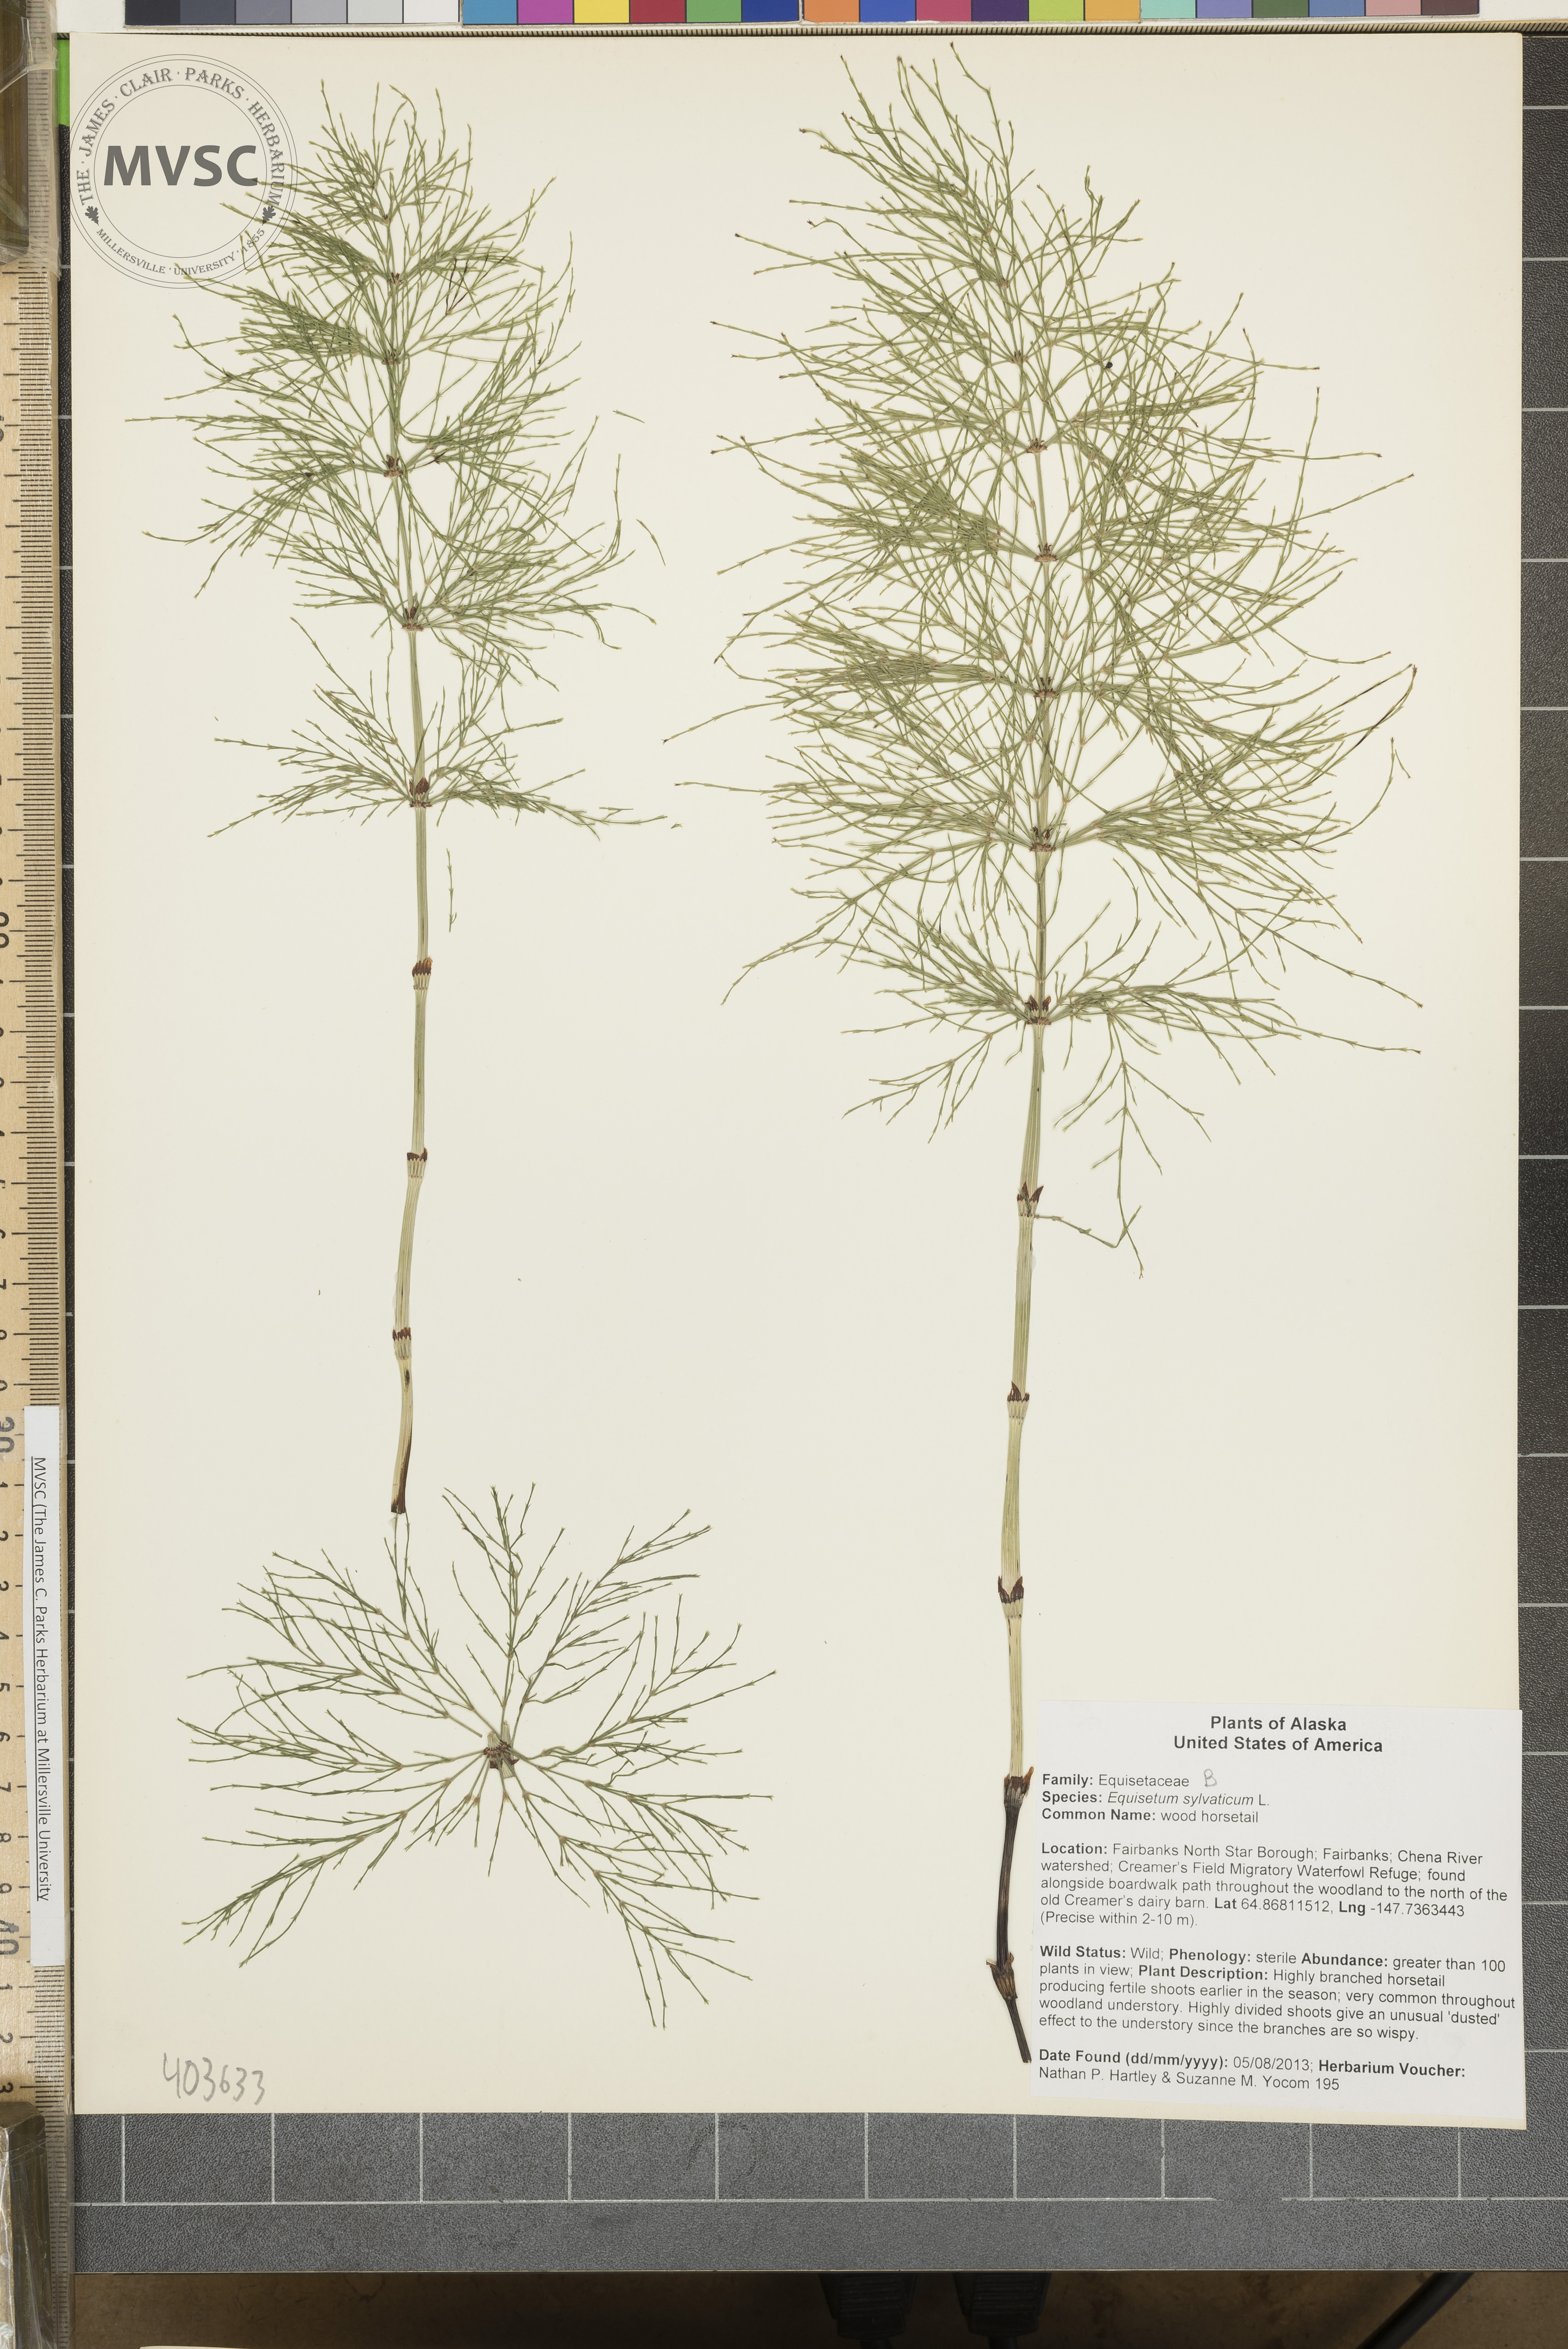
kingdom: Plantae
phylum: Tracheophyta
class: Polypodiopsida
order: Equisetales
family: Equisetaceae
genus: Equisetum
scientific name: Equisetum sylvaticum
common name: wood horsetail
